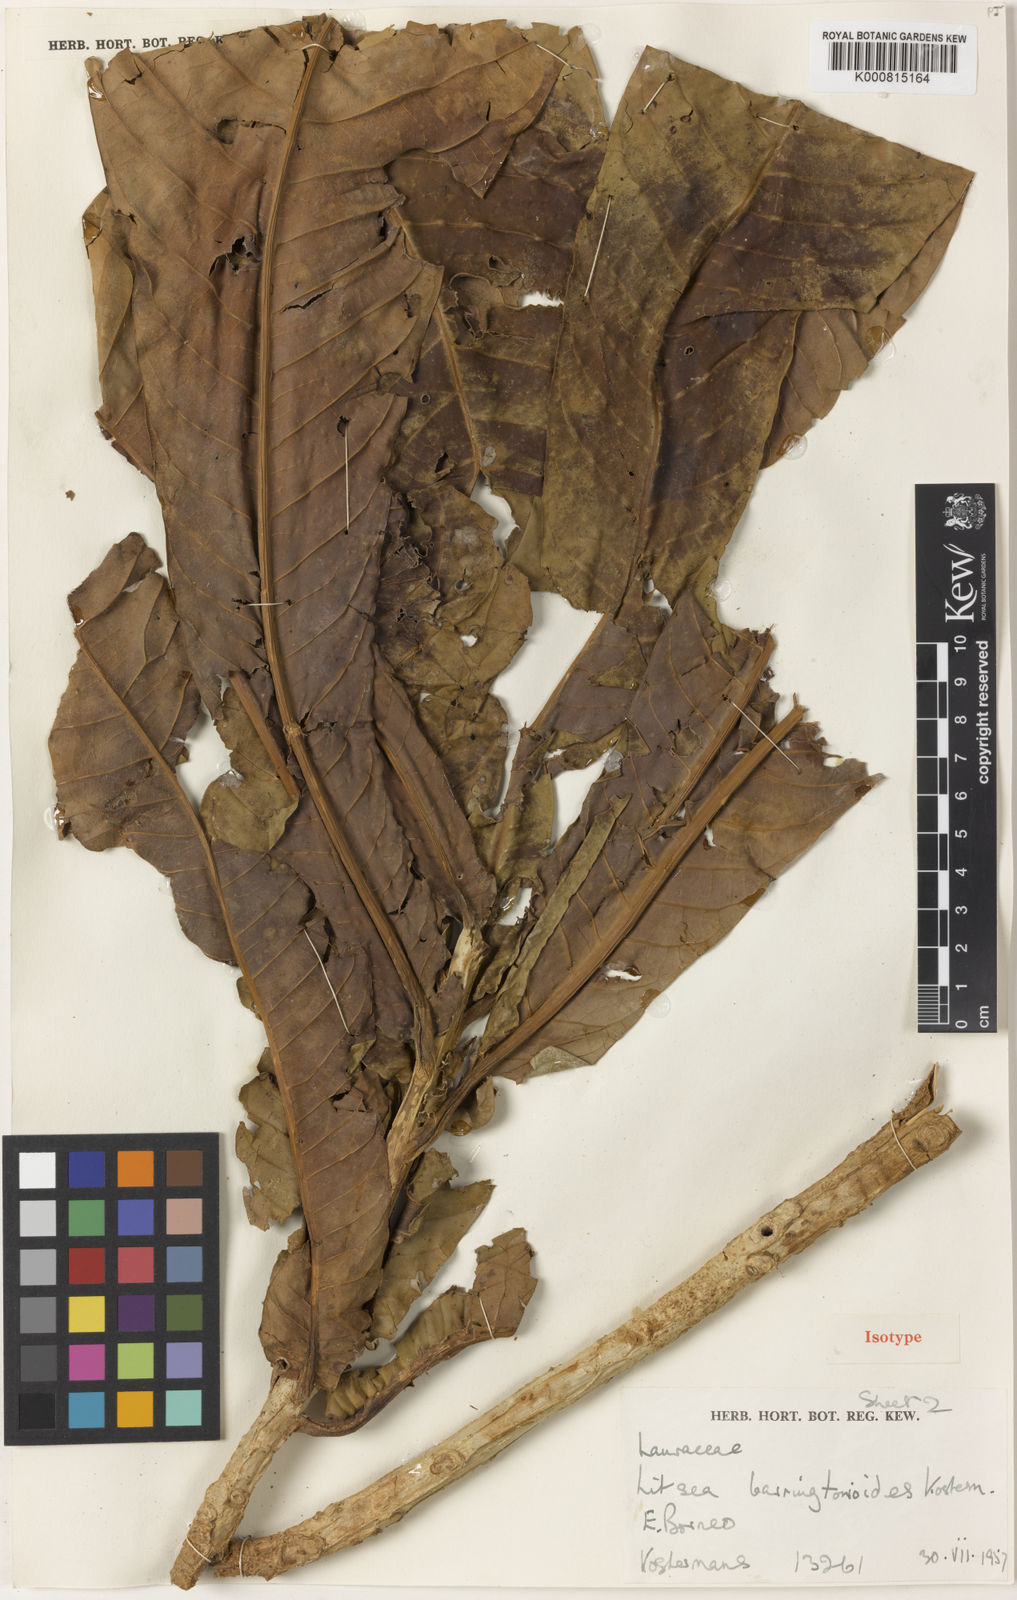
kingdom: Plantae
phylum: Tracheophyta
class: Magnoliopsida
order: Laurales
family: Lauraceae
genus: Litsea
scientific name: Litsea barringtonioides
